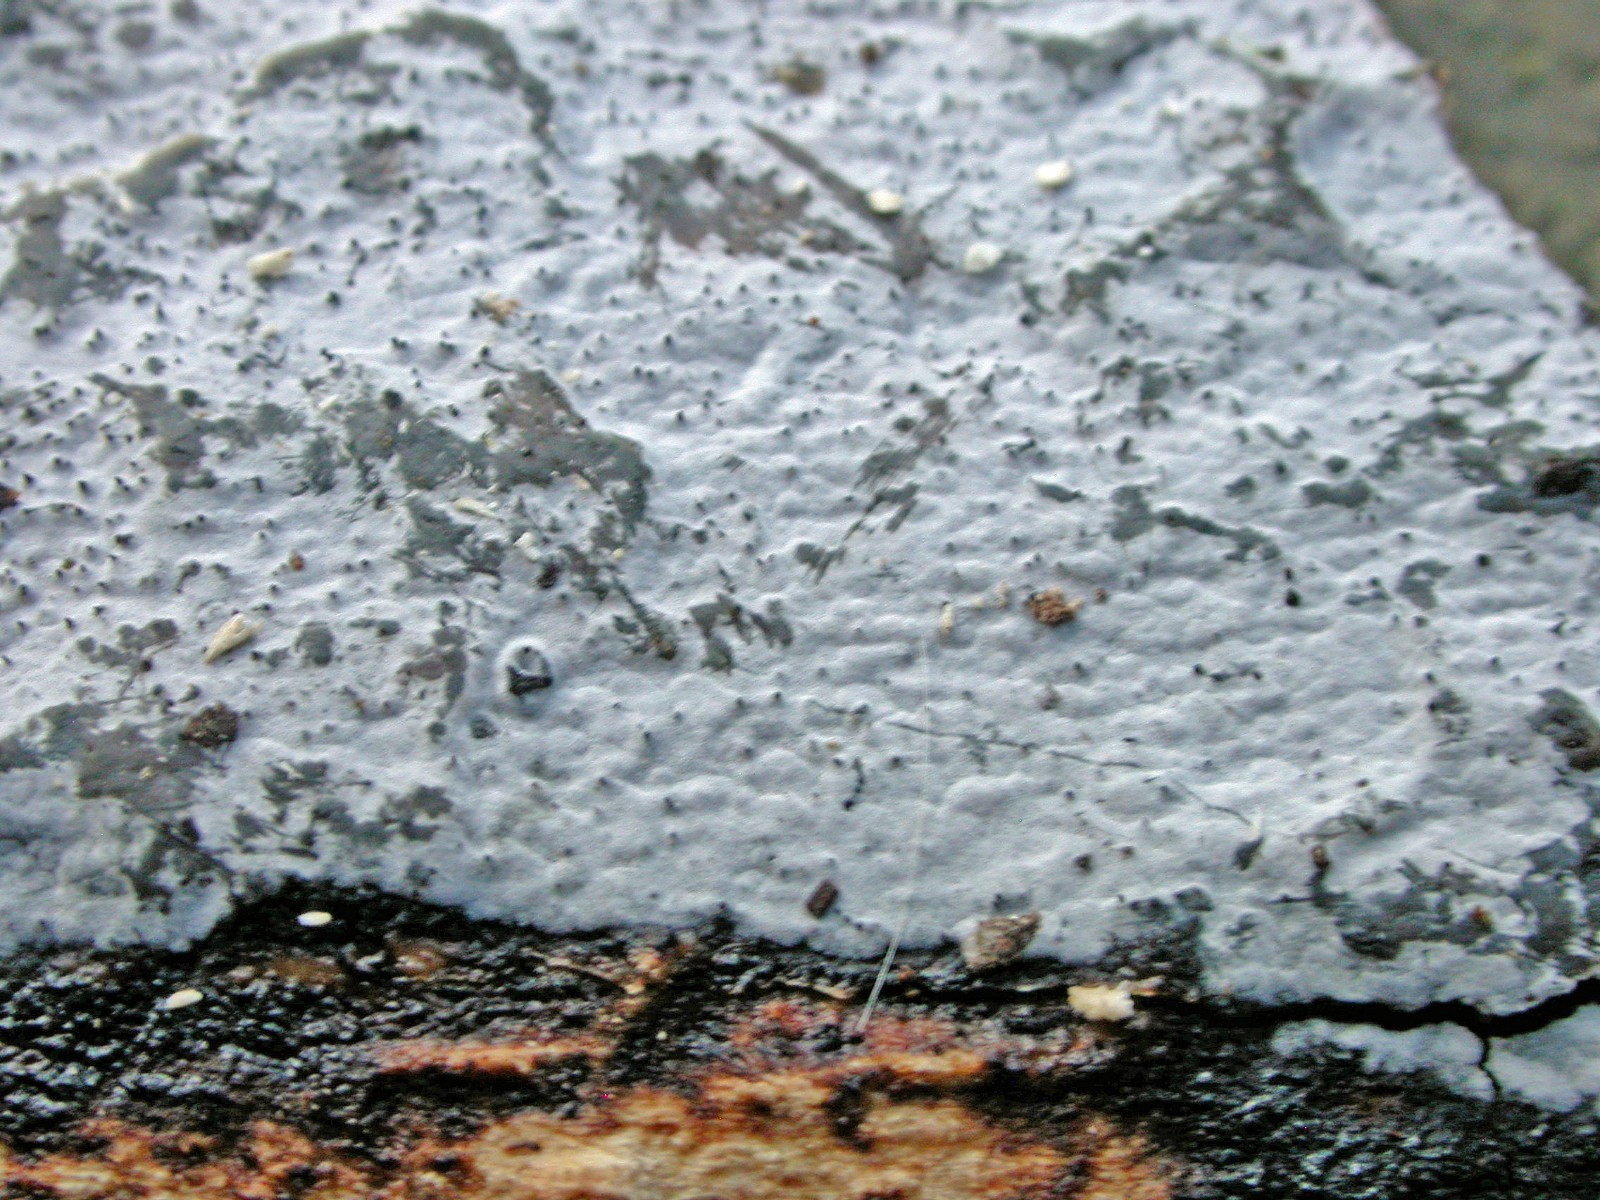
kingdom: Fungi
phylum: Basidiomycota
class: Agaricomycetes
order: Sebacinales
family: Sebacinaceae
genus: Sebacina
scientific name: Sebacina grisea
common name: blågrå bævrehinde
